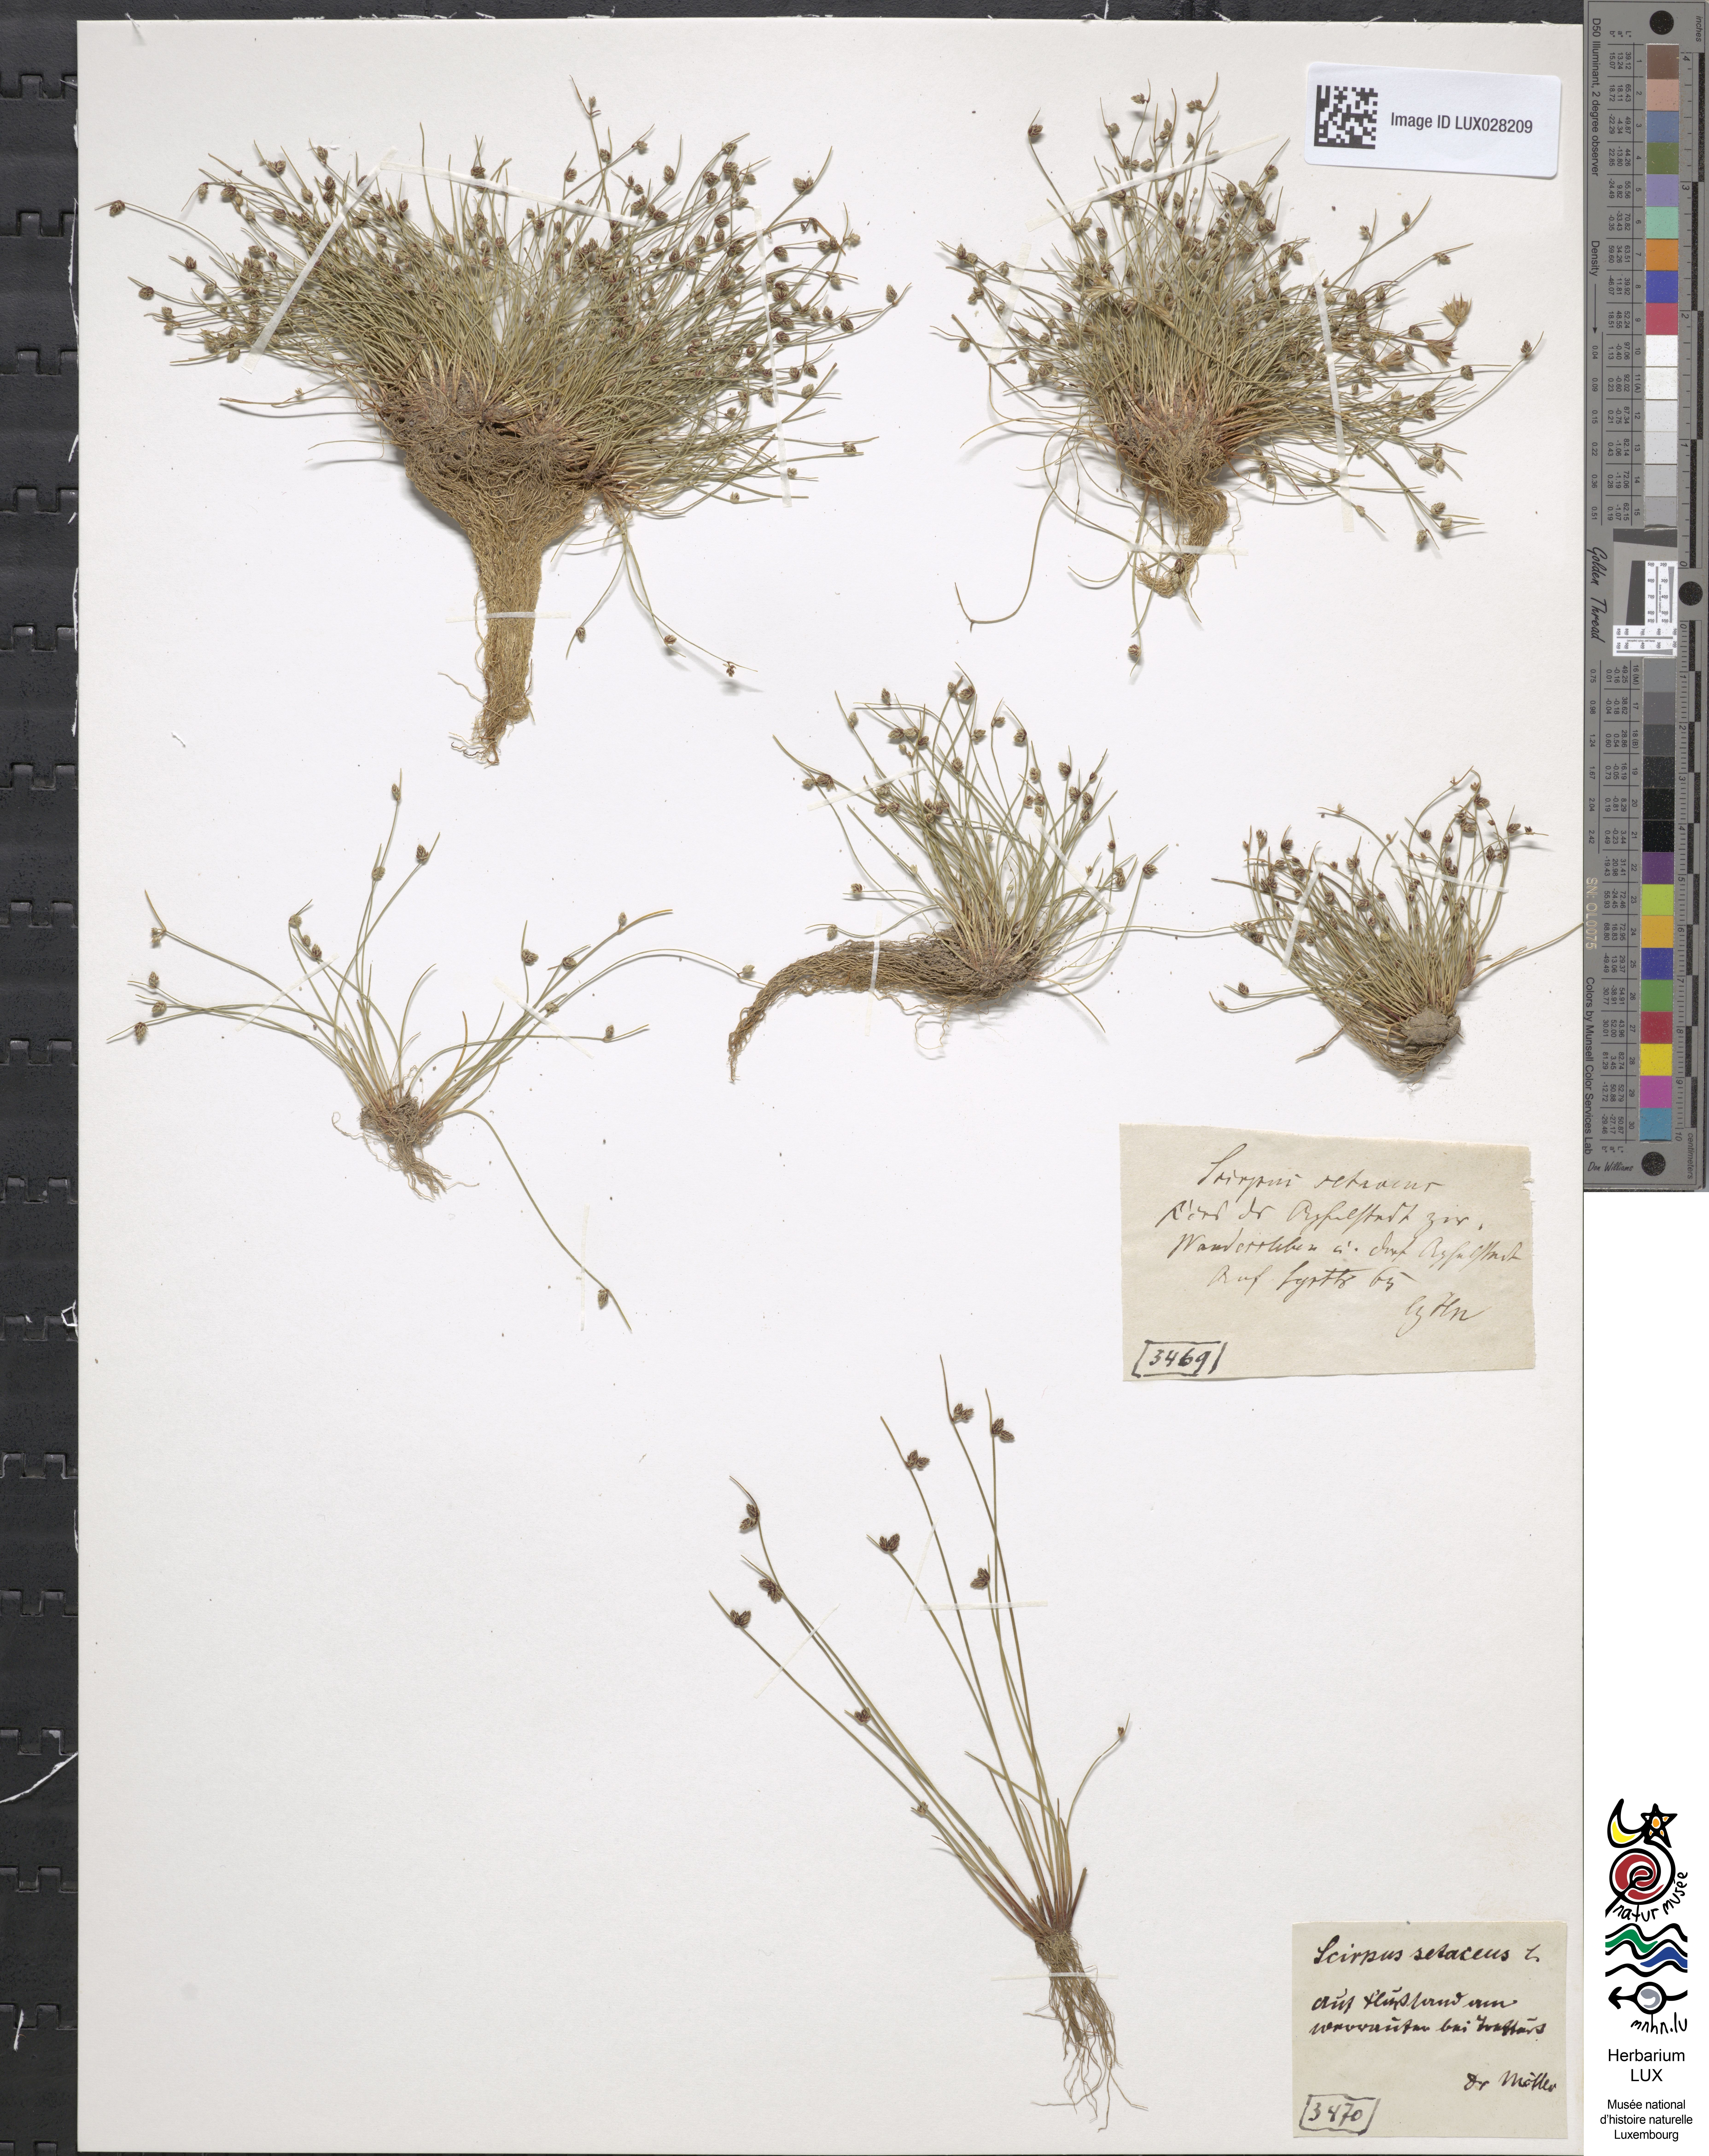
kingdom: Plantae
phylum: Tracheophyta
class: Liliopsida
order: Poales
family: Cyperaceae
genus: Isolepis
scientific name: Isolepis setacea
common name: Bristle club-rush
